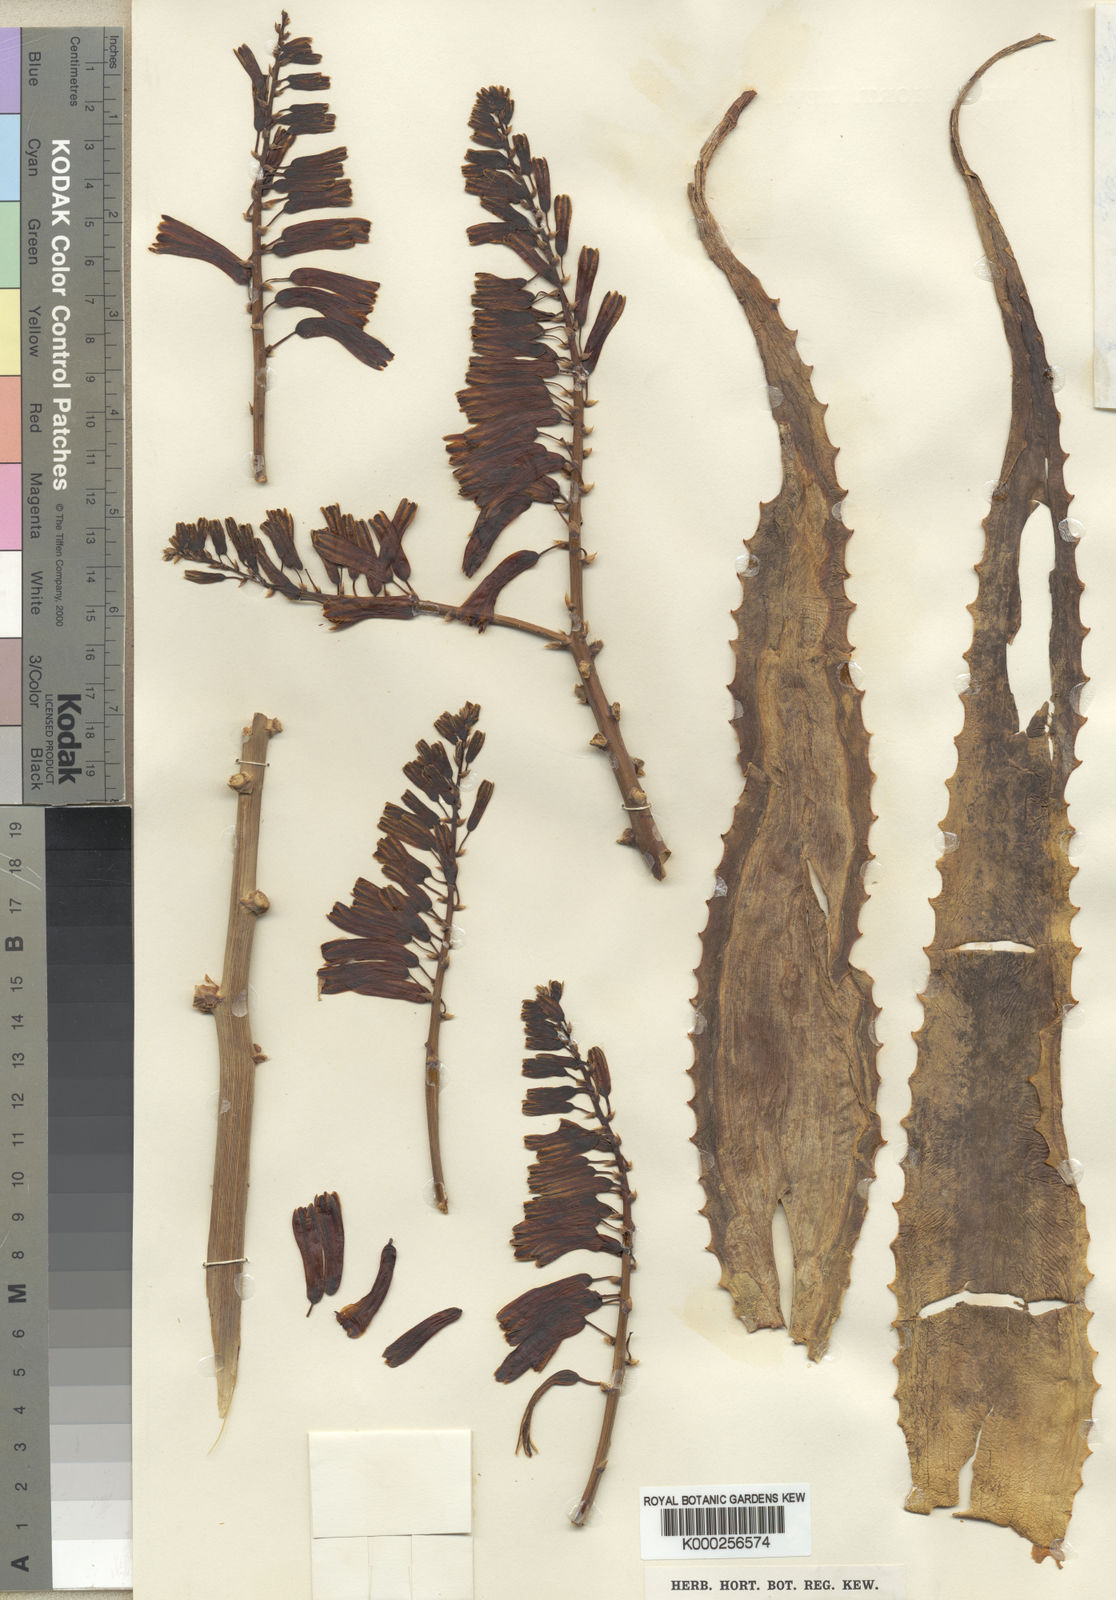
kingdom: Plantae
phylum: Tracheophyta
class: Liliopsida
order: Asparagales
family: Asphodelaceae
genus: Aloe
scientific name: Aloe gossweileri
